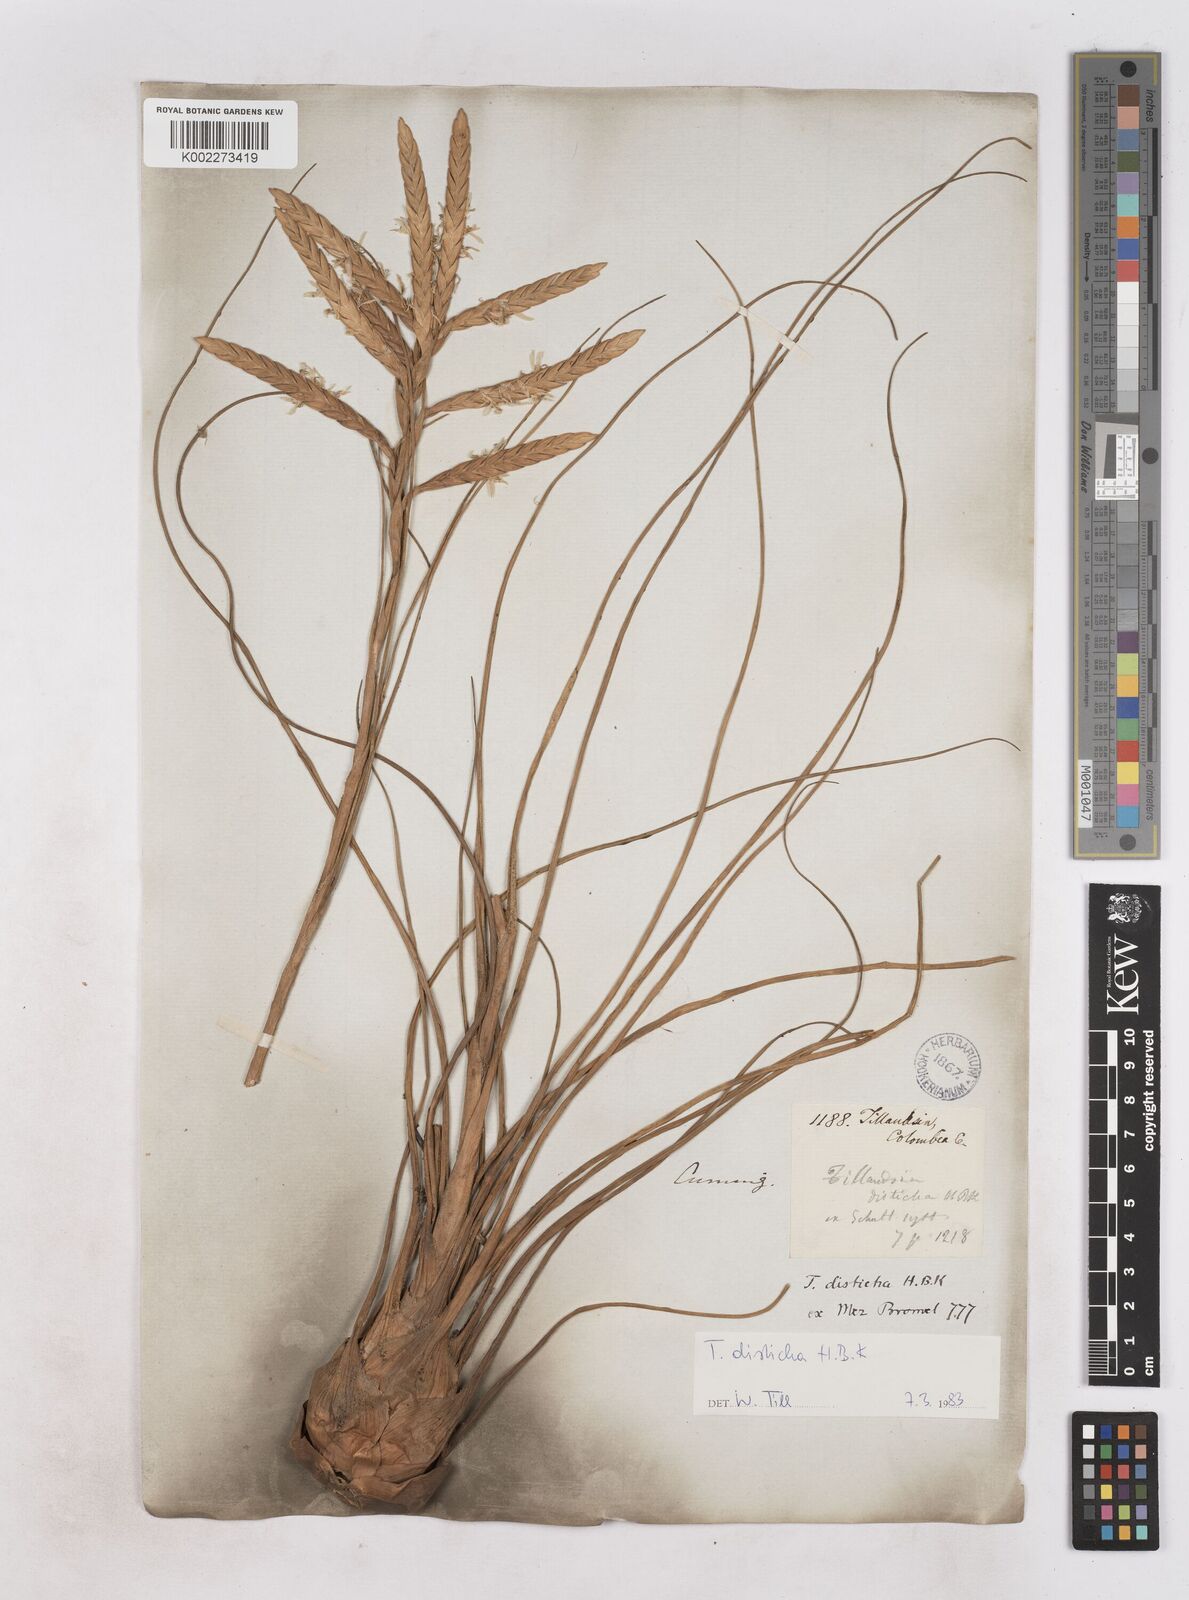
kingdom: Plantae
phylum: Tracheophyta
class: Liliopsida
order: Poales
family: Bromeliaceae
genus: Tillandsia
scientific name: Tillandsia
